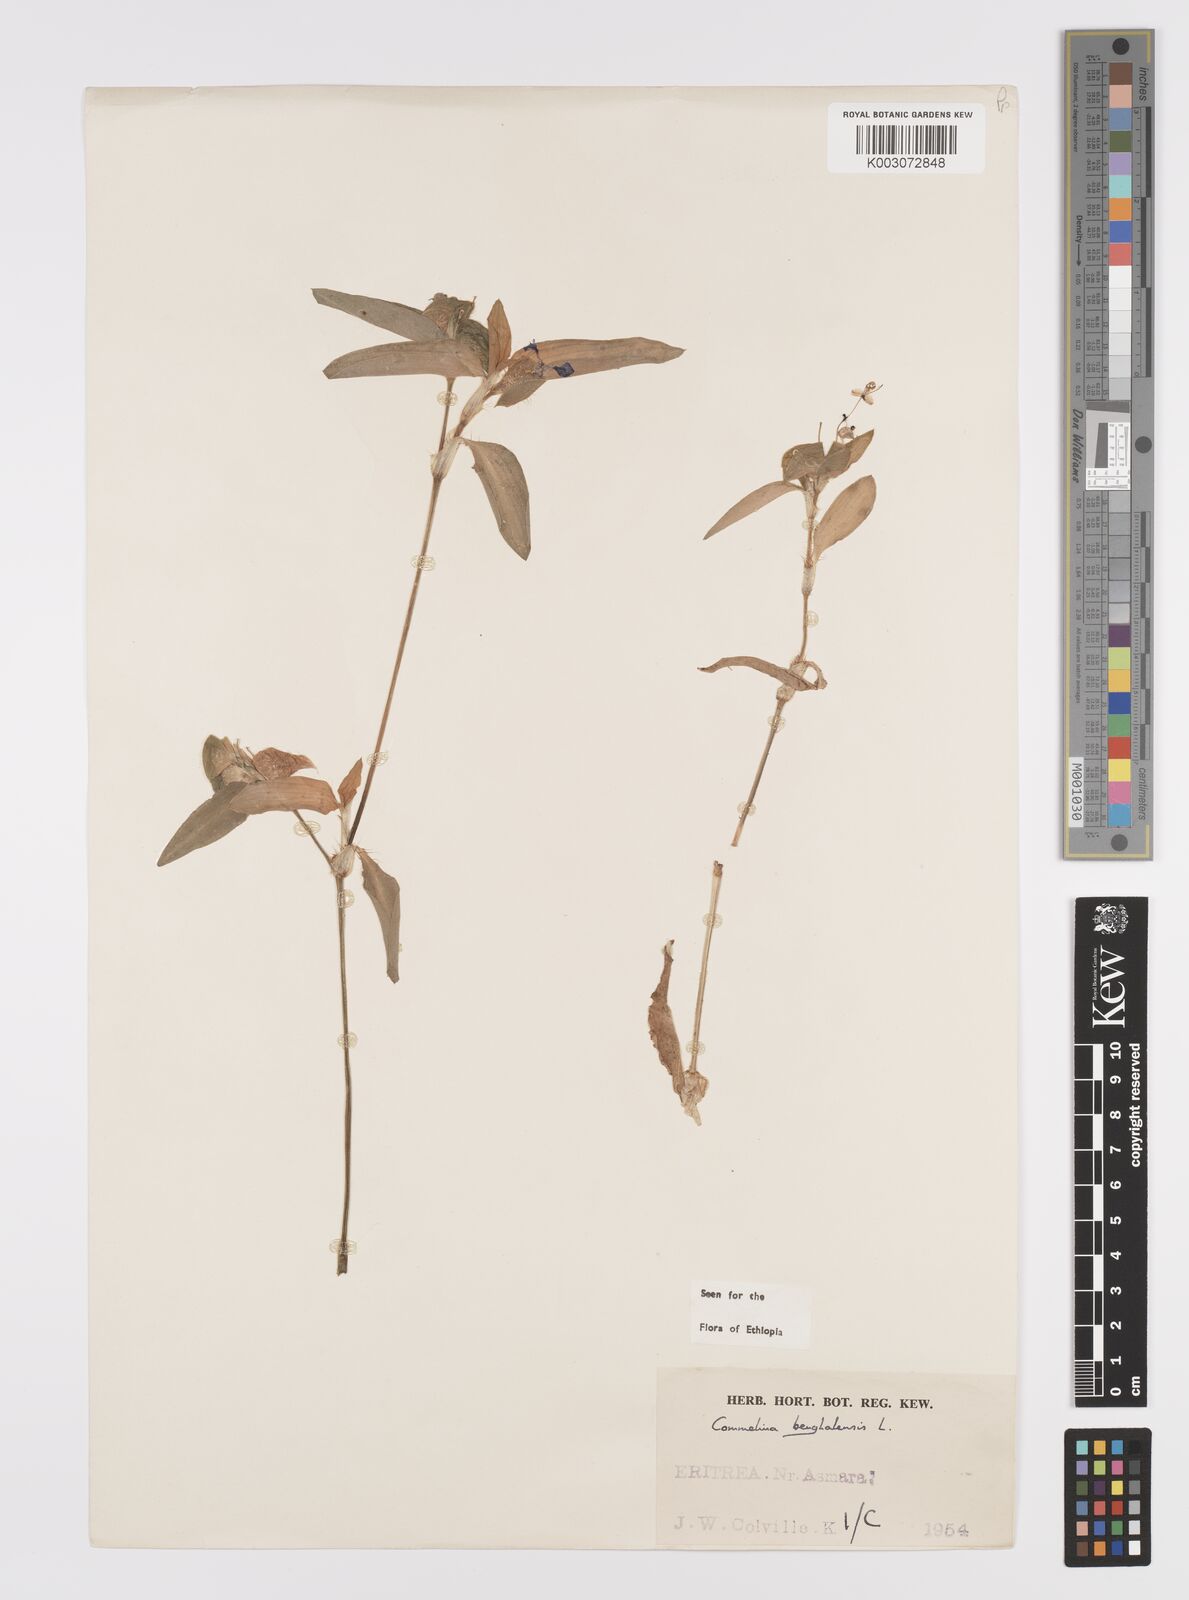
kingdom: Plantae
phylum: Tracheophyta
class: Liliopsida
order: Commelinales
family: Commelinaceae
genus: Commelina
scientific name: Commelina benghalensis
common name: Jio
